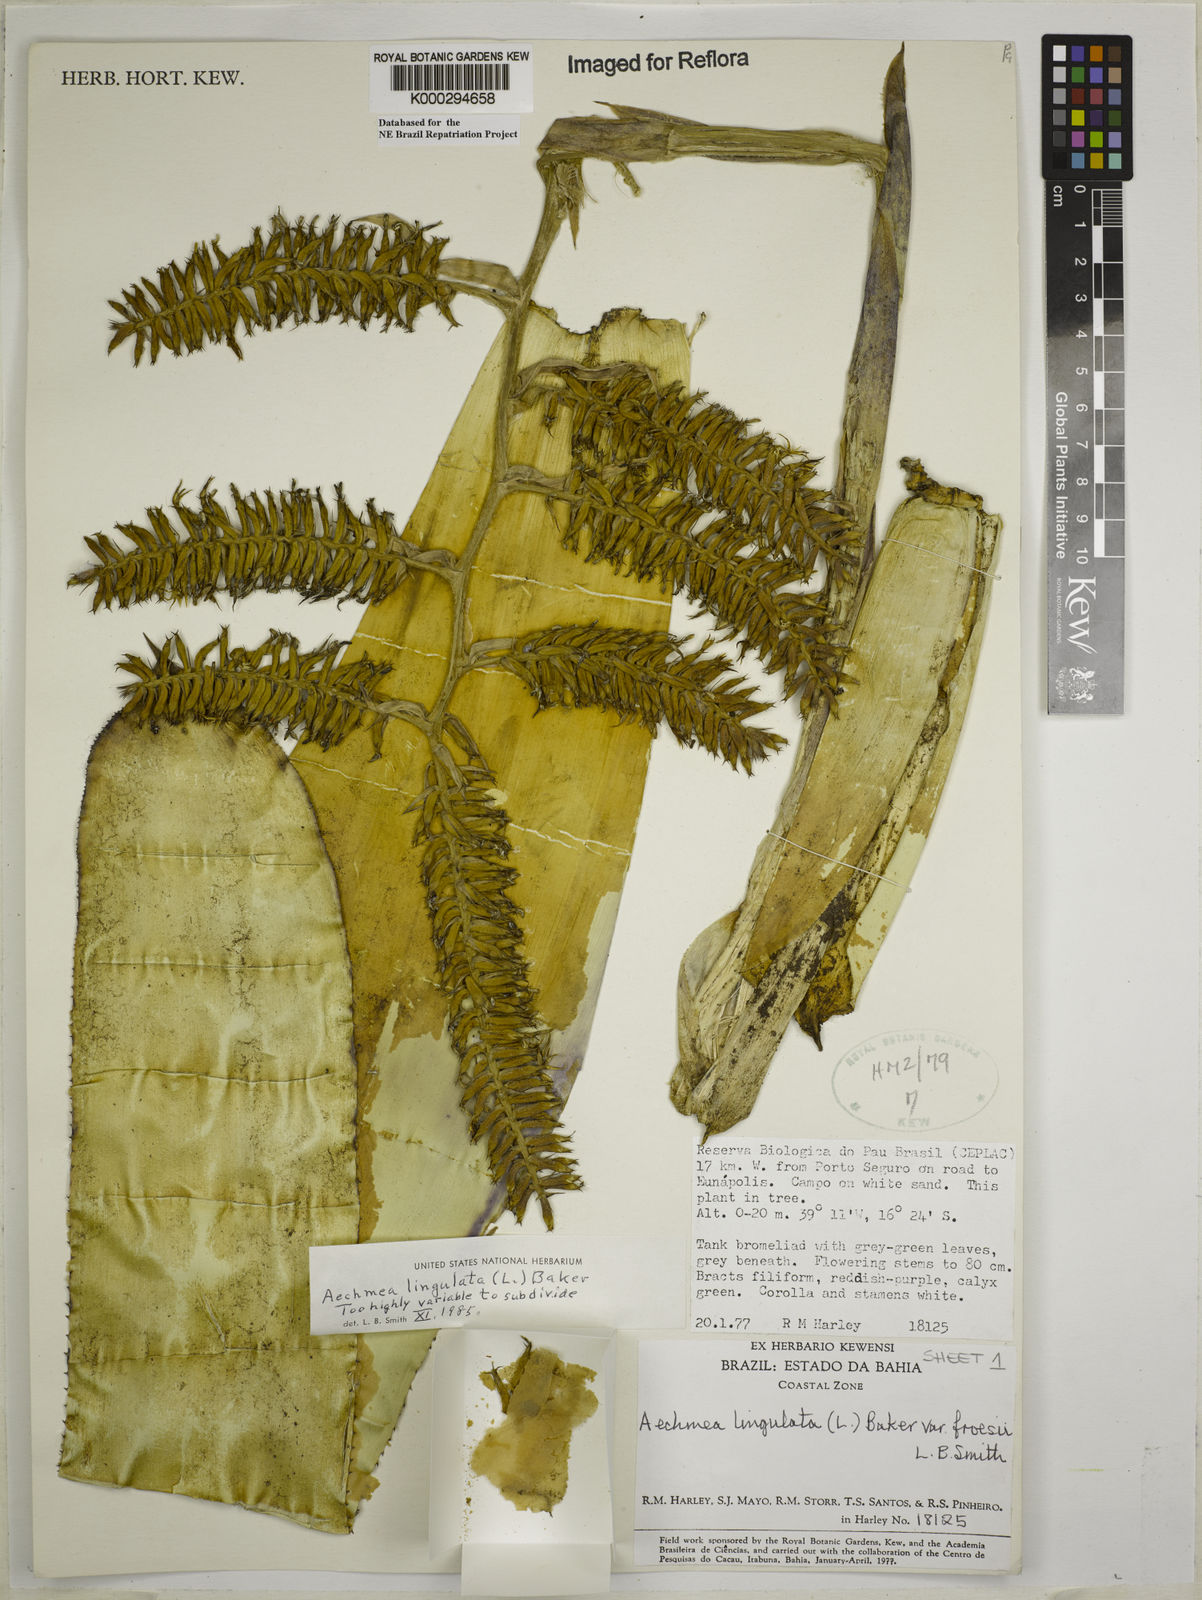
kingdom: Plantae
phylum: Tracheophyta
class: Liliopsida
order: Poales
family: Bromeliaceae
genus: Wittmackia
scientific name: Wittmackia froesii
